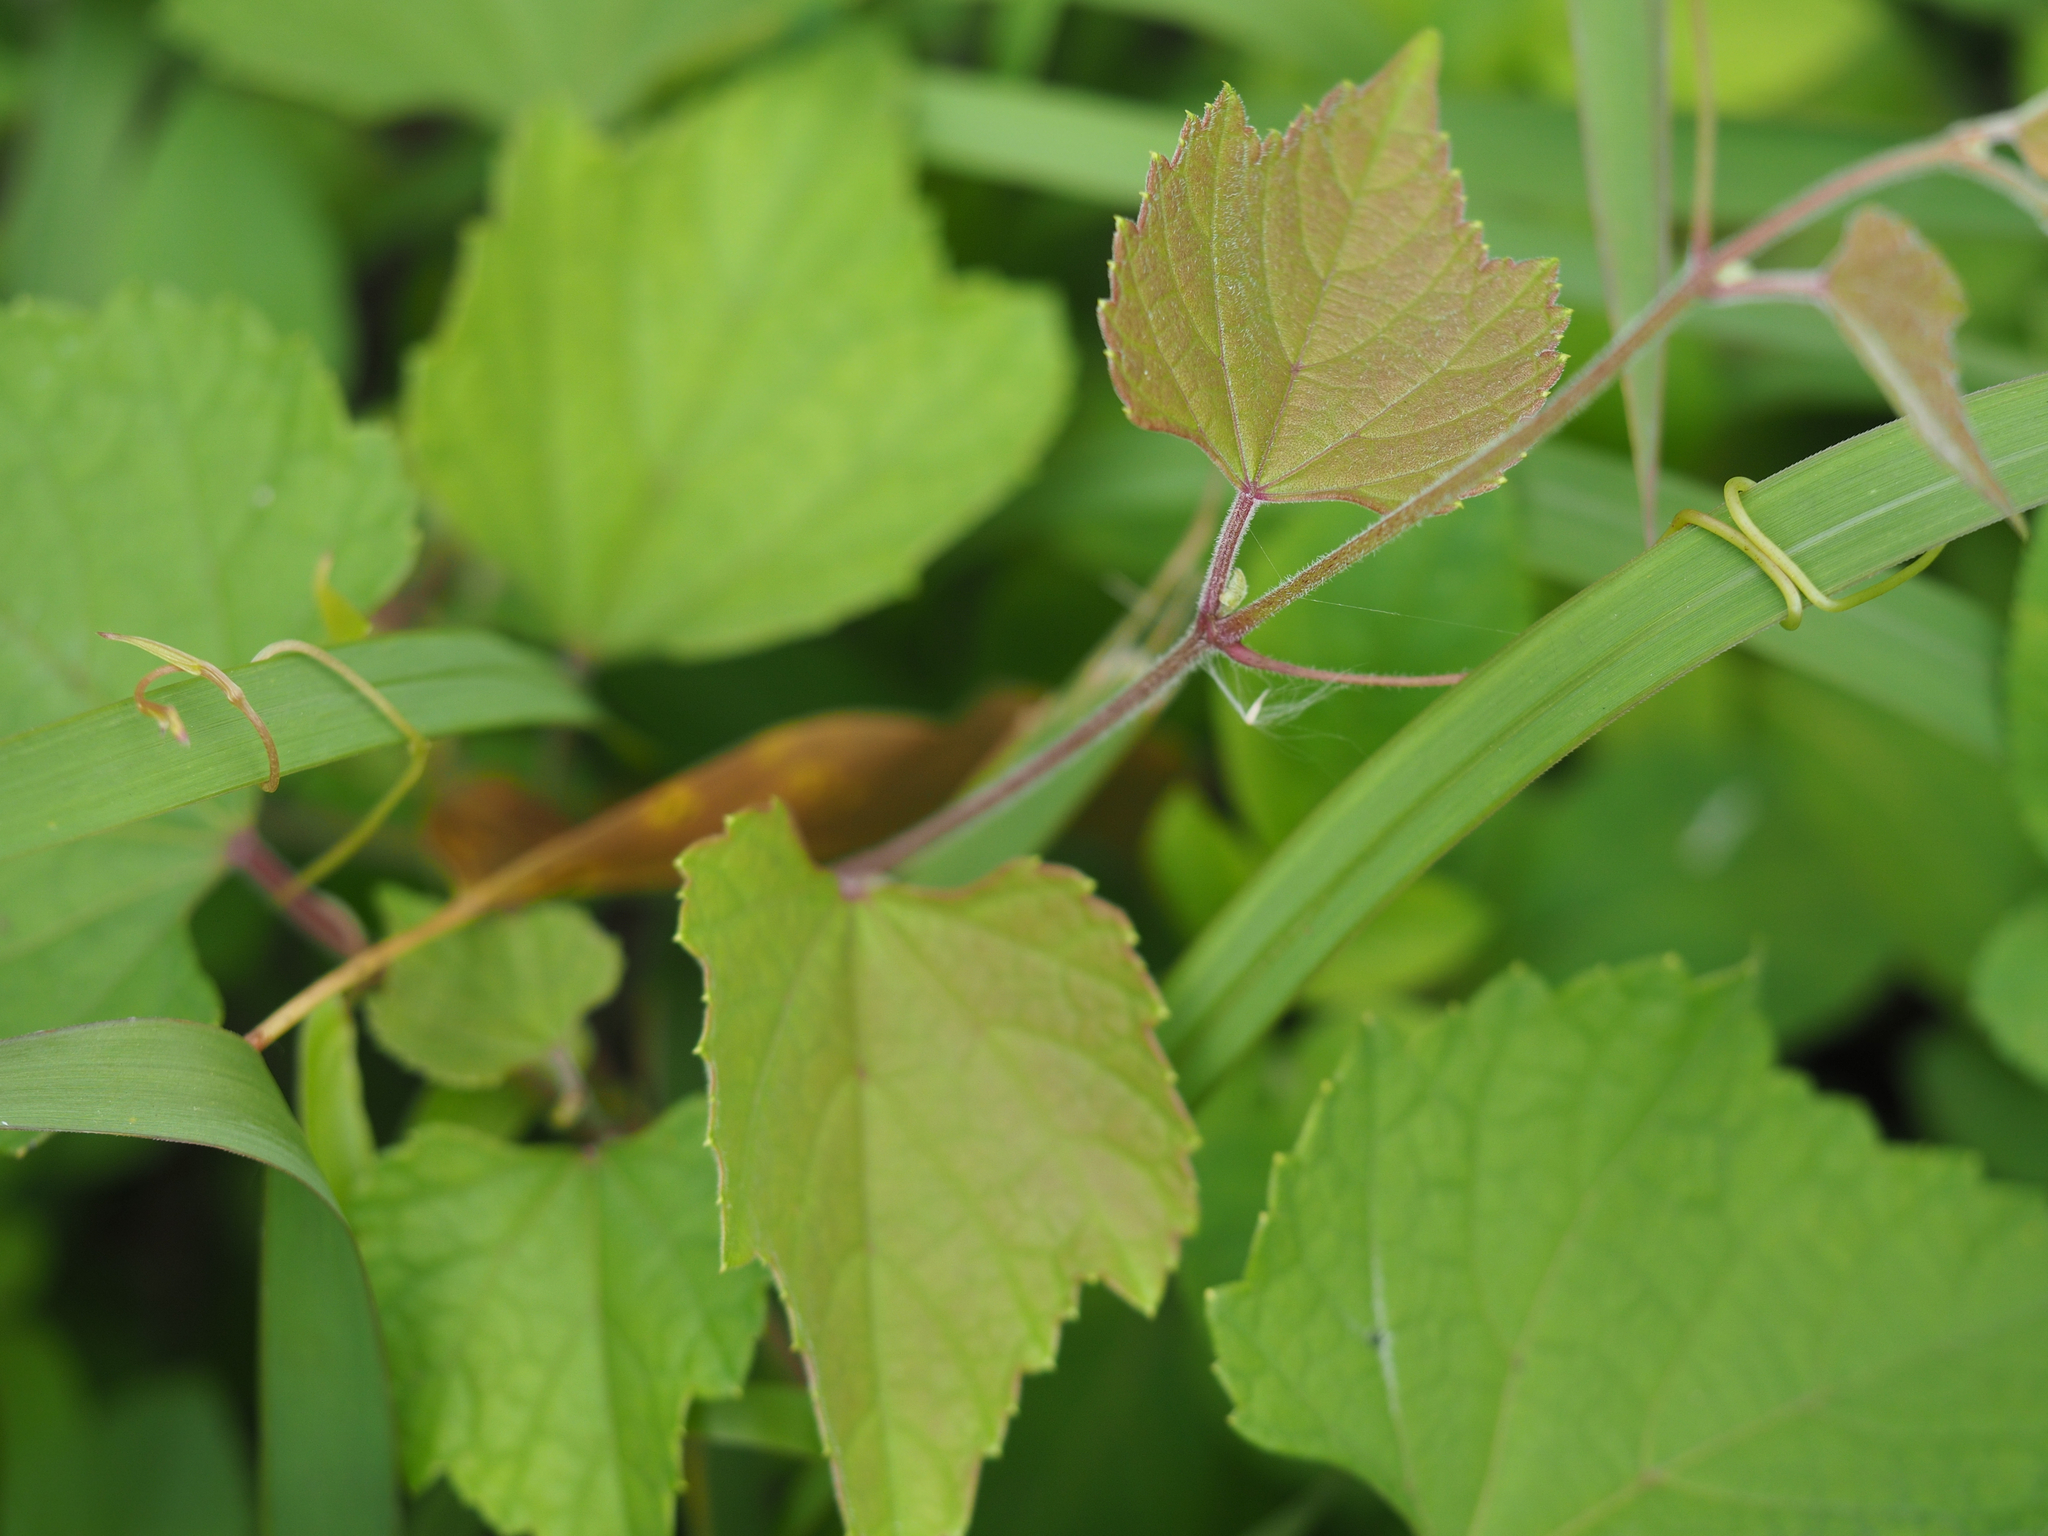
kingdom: Plantae
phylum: Tracheophyta
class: Magnoliopsida
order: Vitales
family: Vitaceae
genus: Ampelopsis
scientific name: Ampelopsis glandulosa
